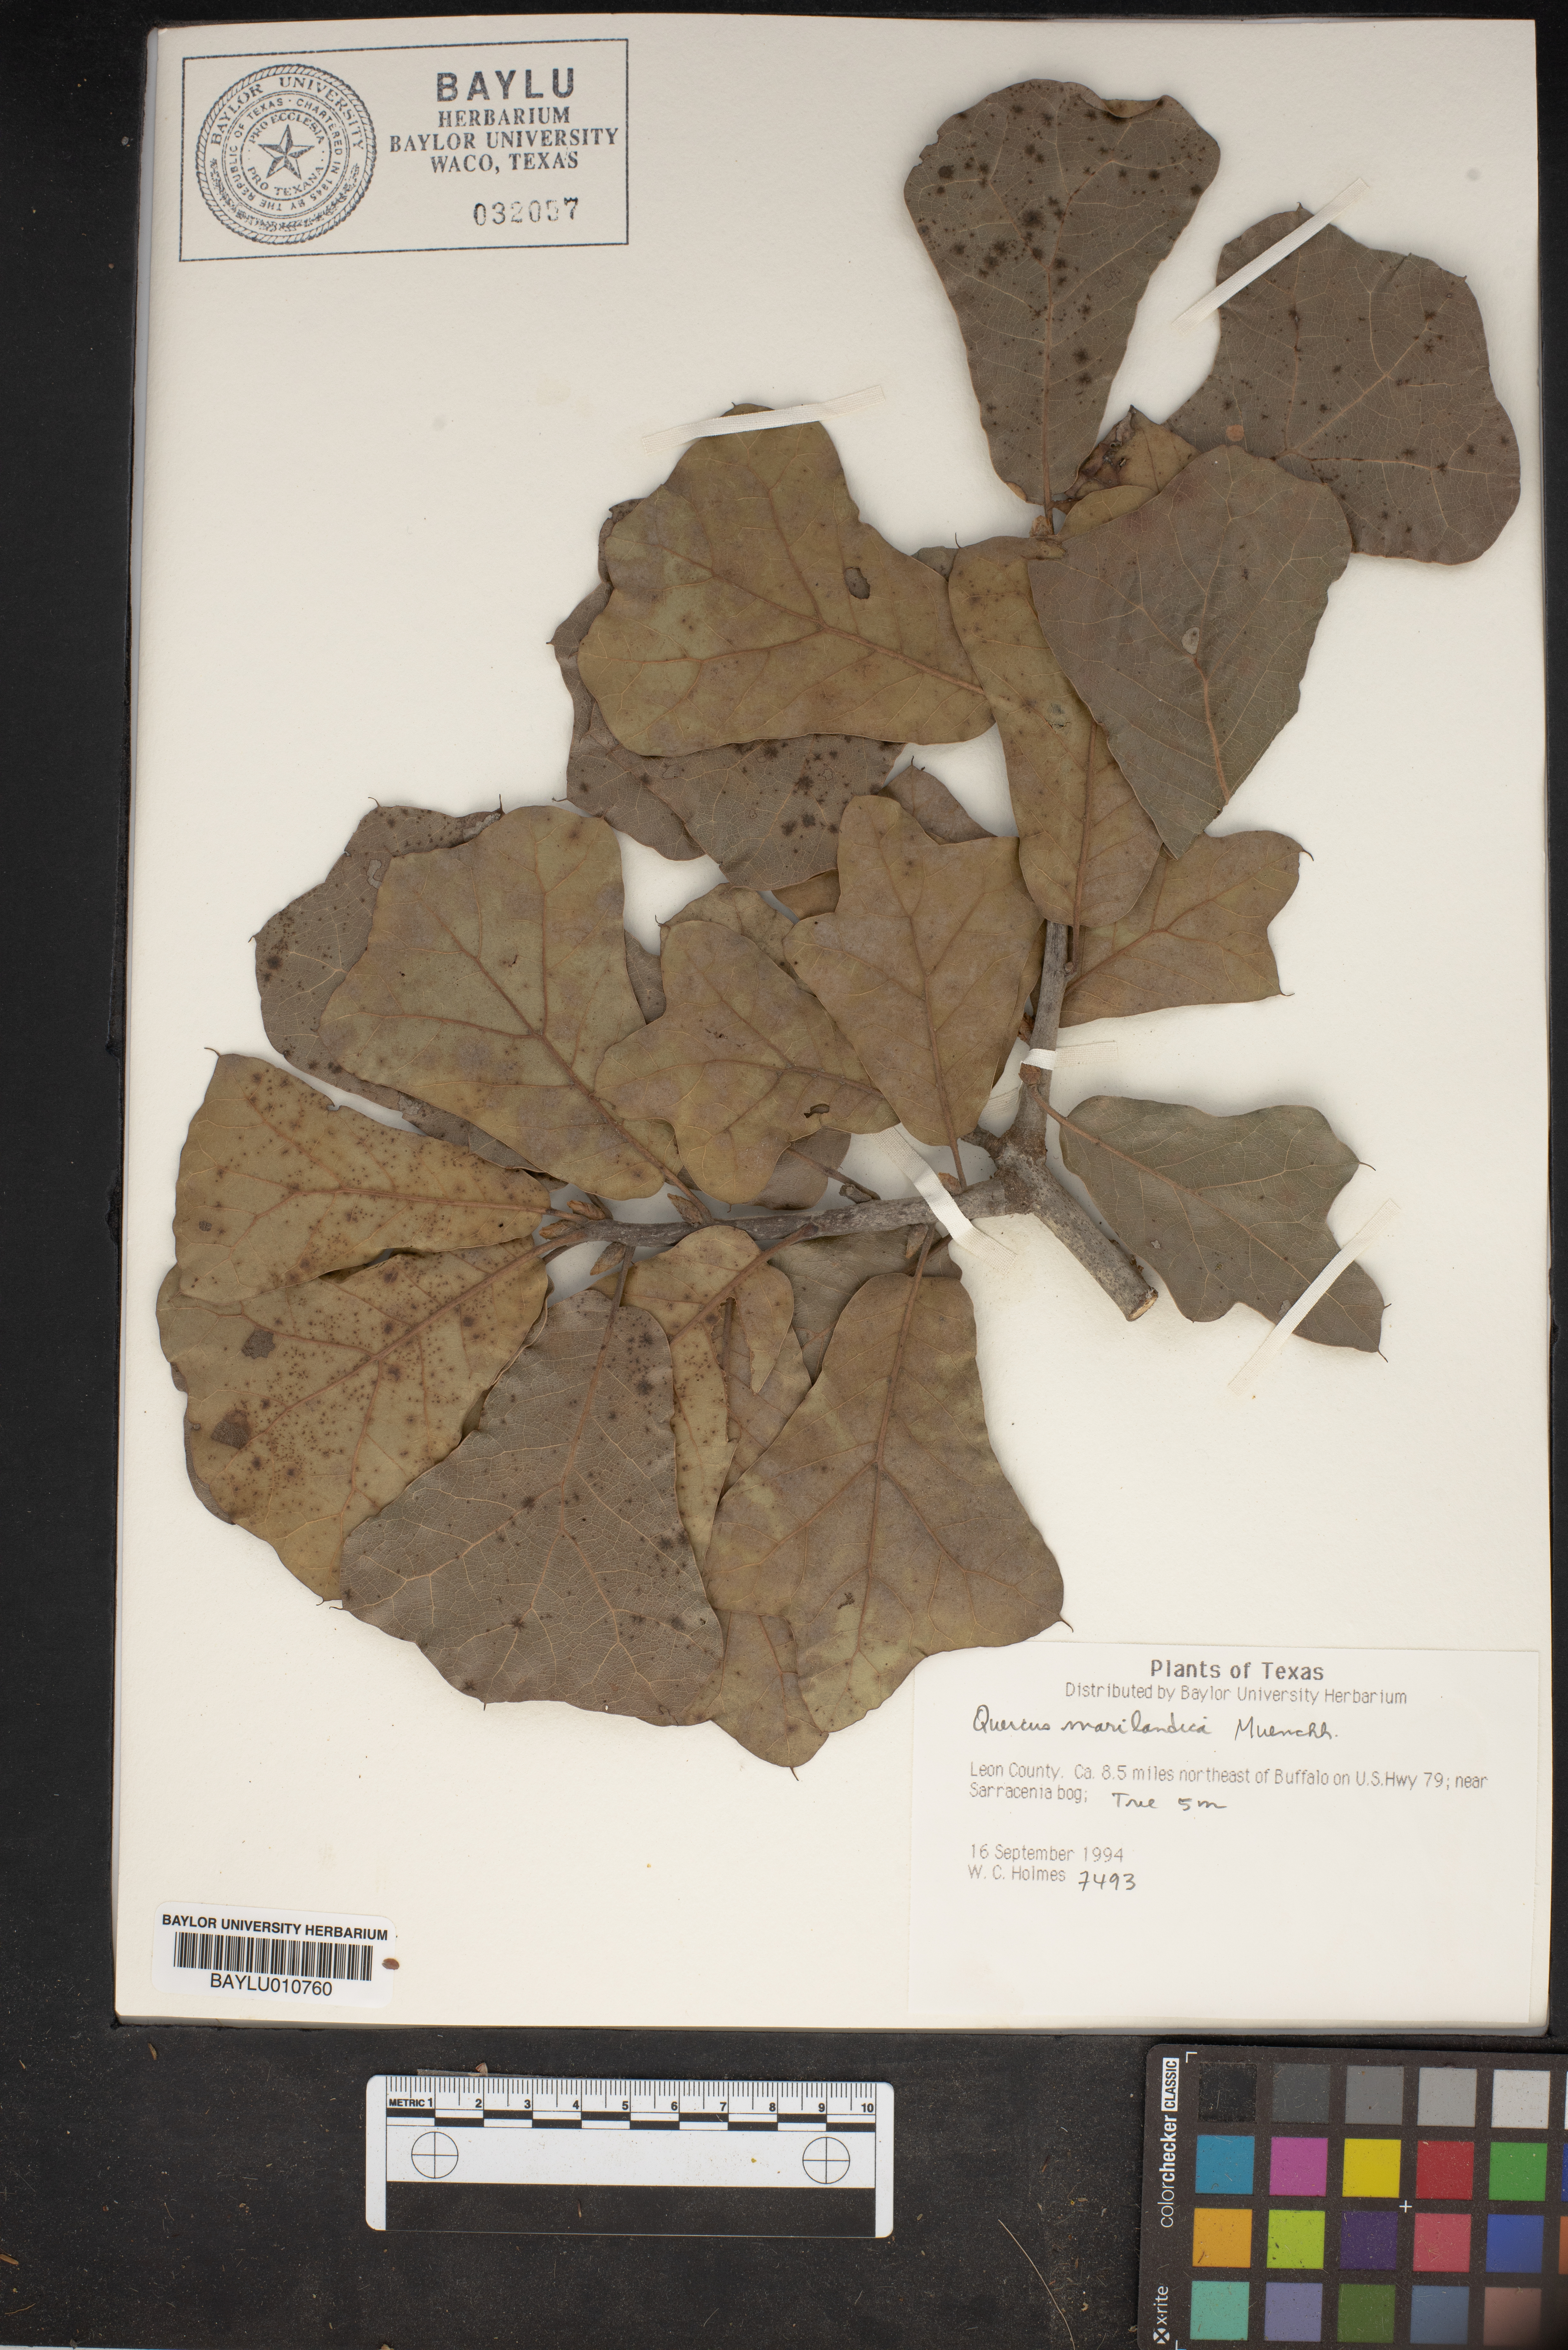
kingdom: Plantae
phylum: Tracheophyta
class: Magnoliopsida
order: Fagales
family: Fagaceae
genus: Quercus
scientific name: Quercus marilandica
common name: Blackjack oak
